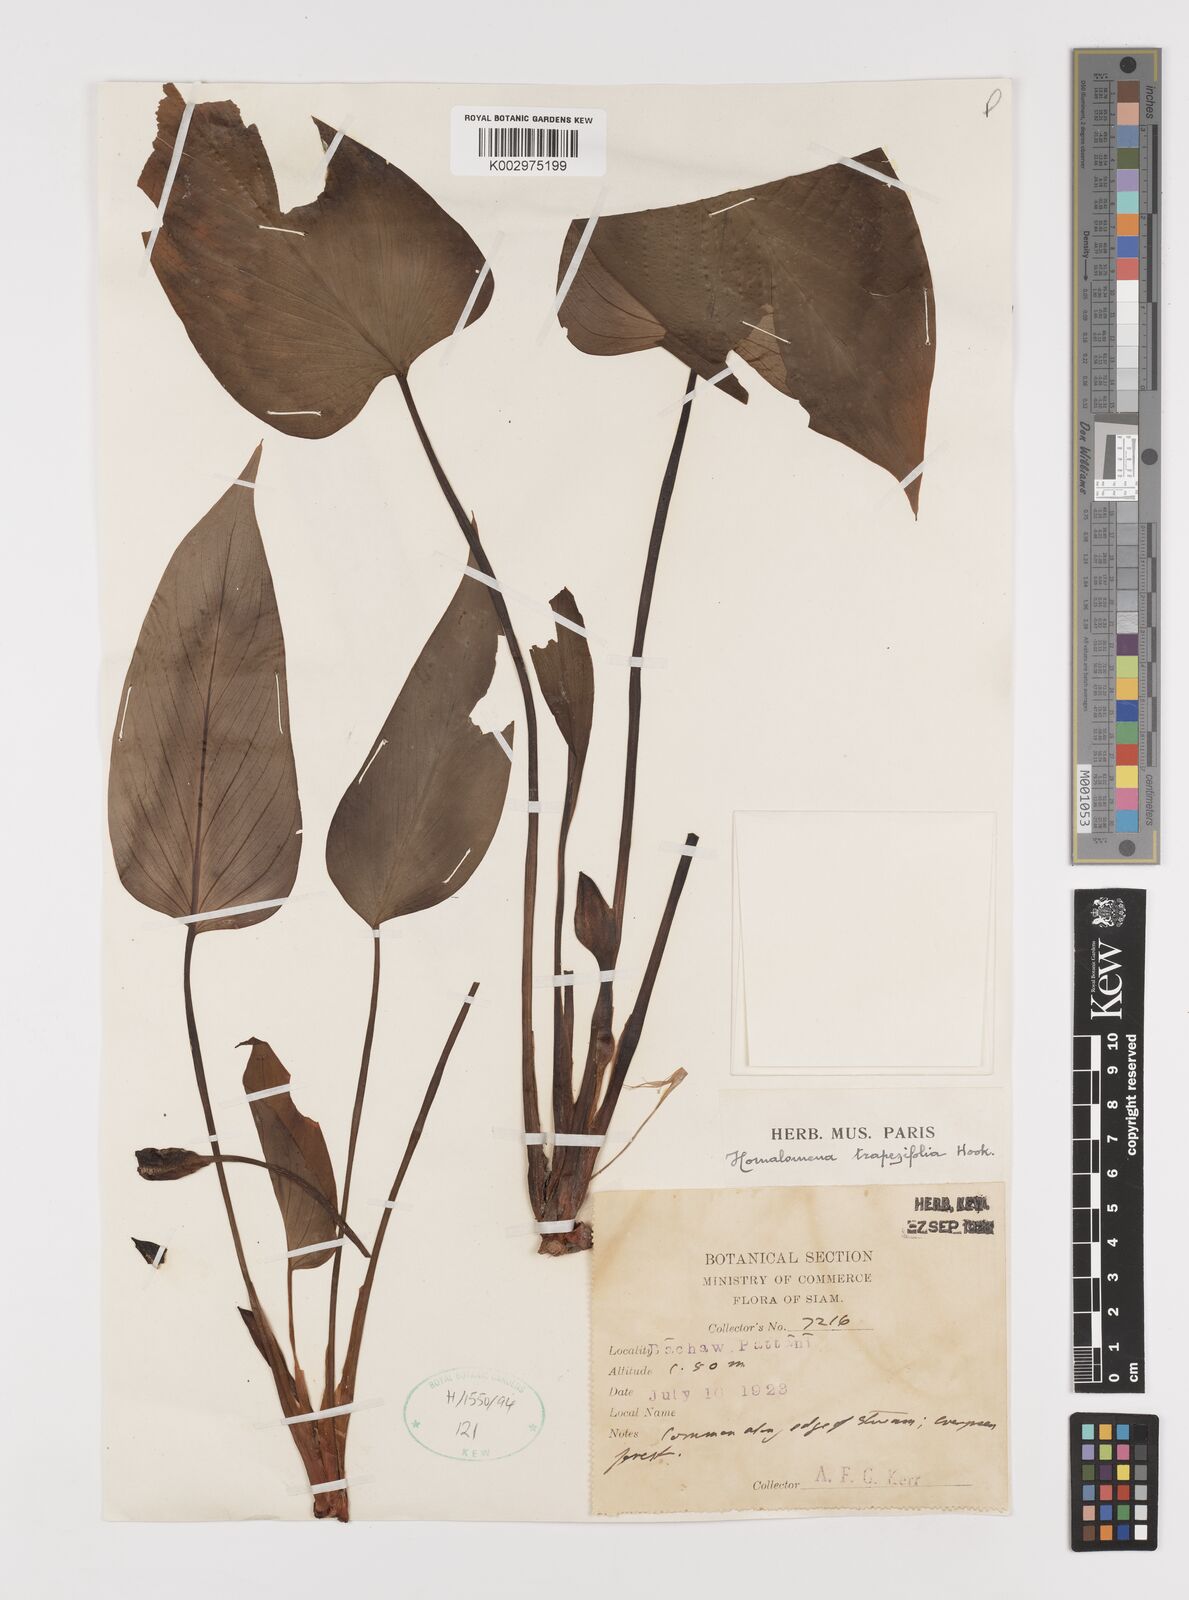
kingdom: Plantae
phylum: Tracheophyta
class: Liliopsida
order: Alismatales
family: Araceae
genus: Homalomena
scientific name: Homalomena griffithii
